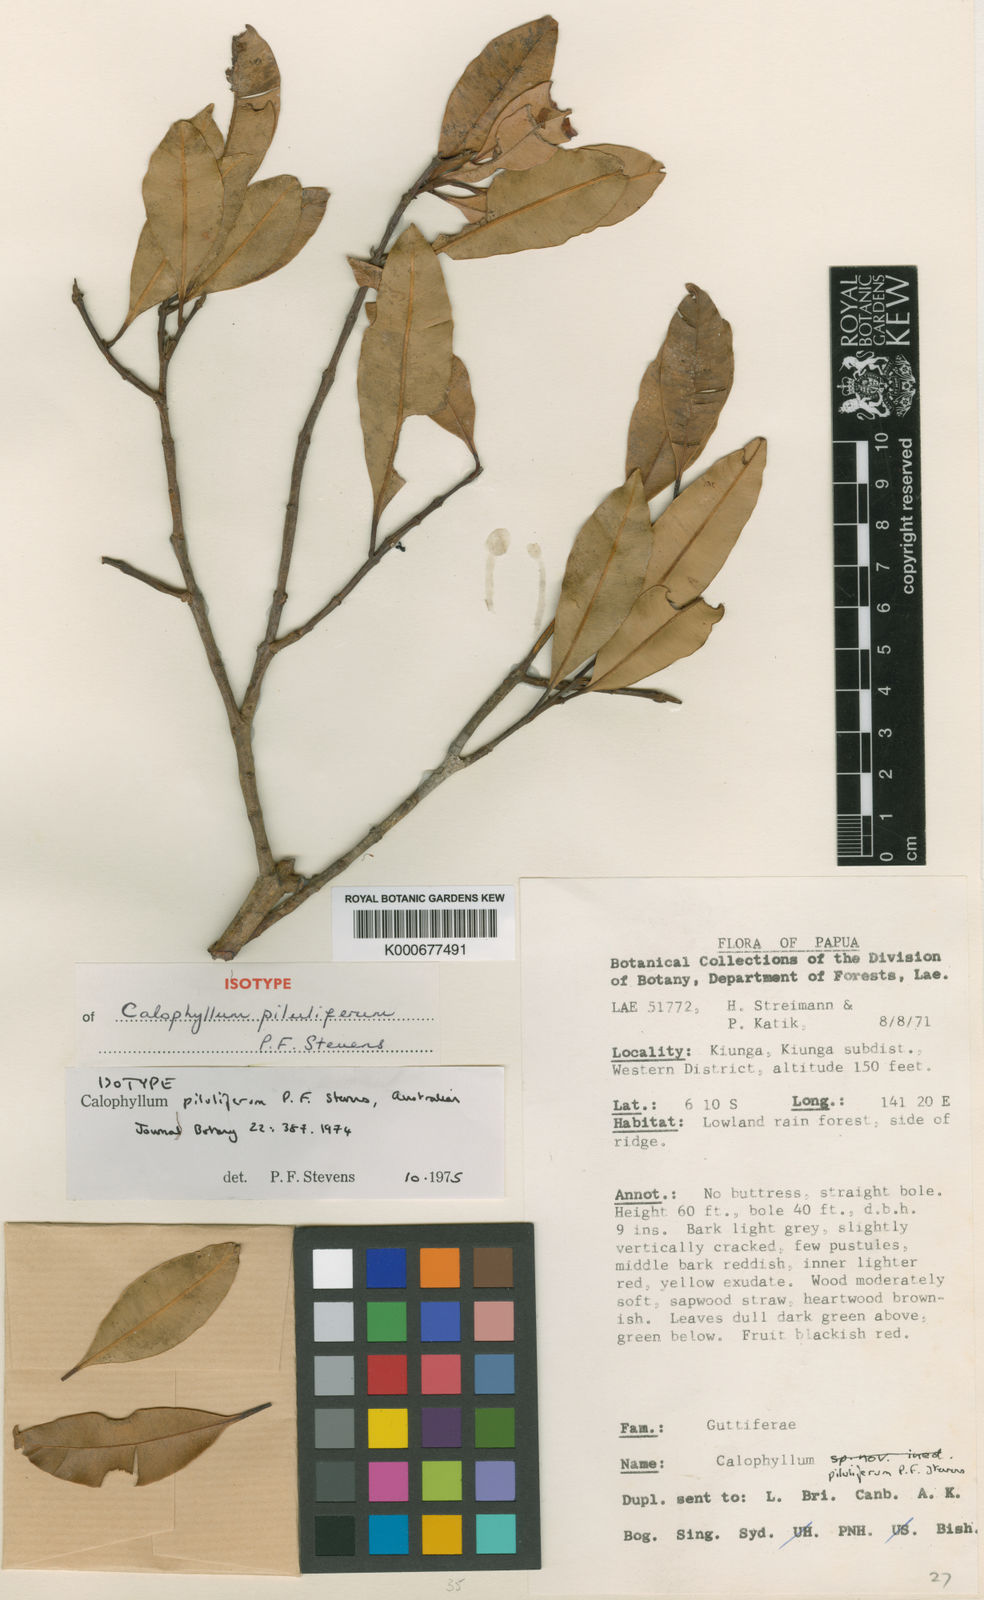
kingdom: Plantae
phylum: Tracheophyta
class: Magnoliopsida
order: Malpighiales
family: Calophyllaceae
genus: Calophyllum
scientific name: Calophyllum piluliferum
